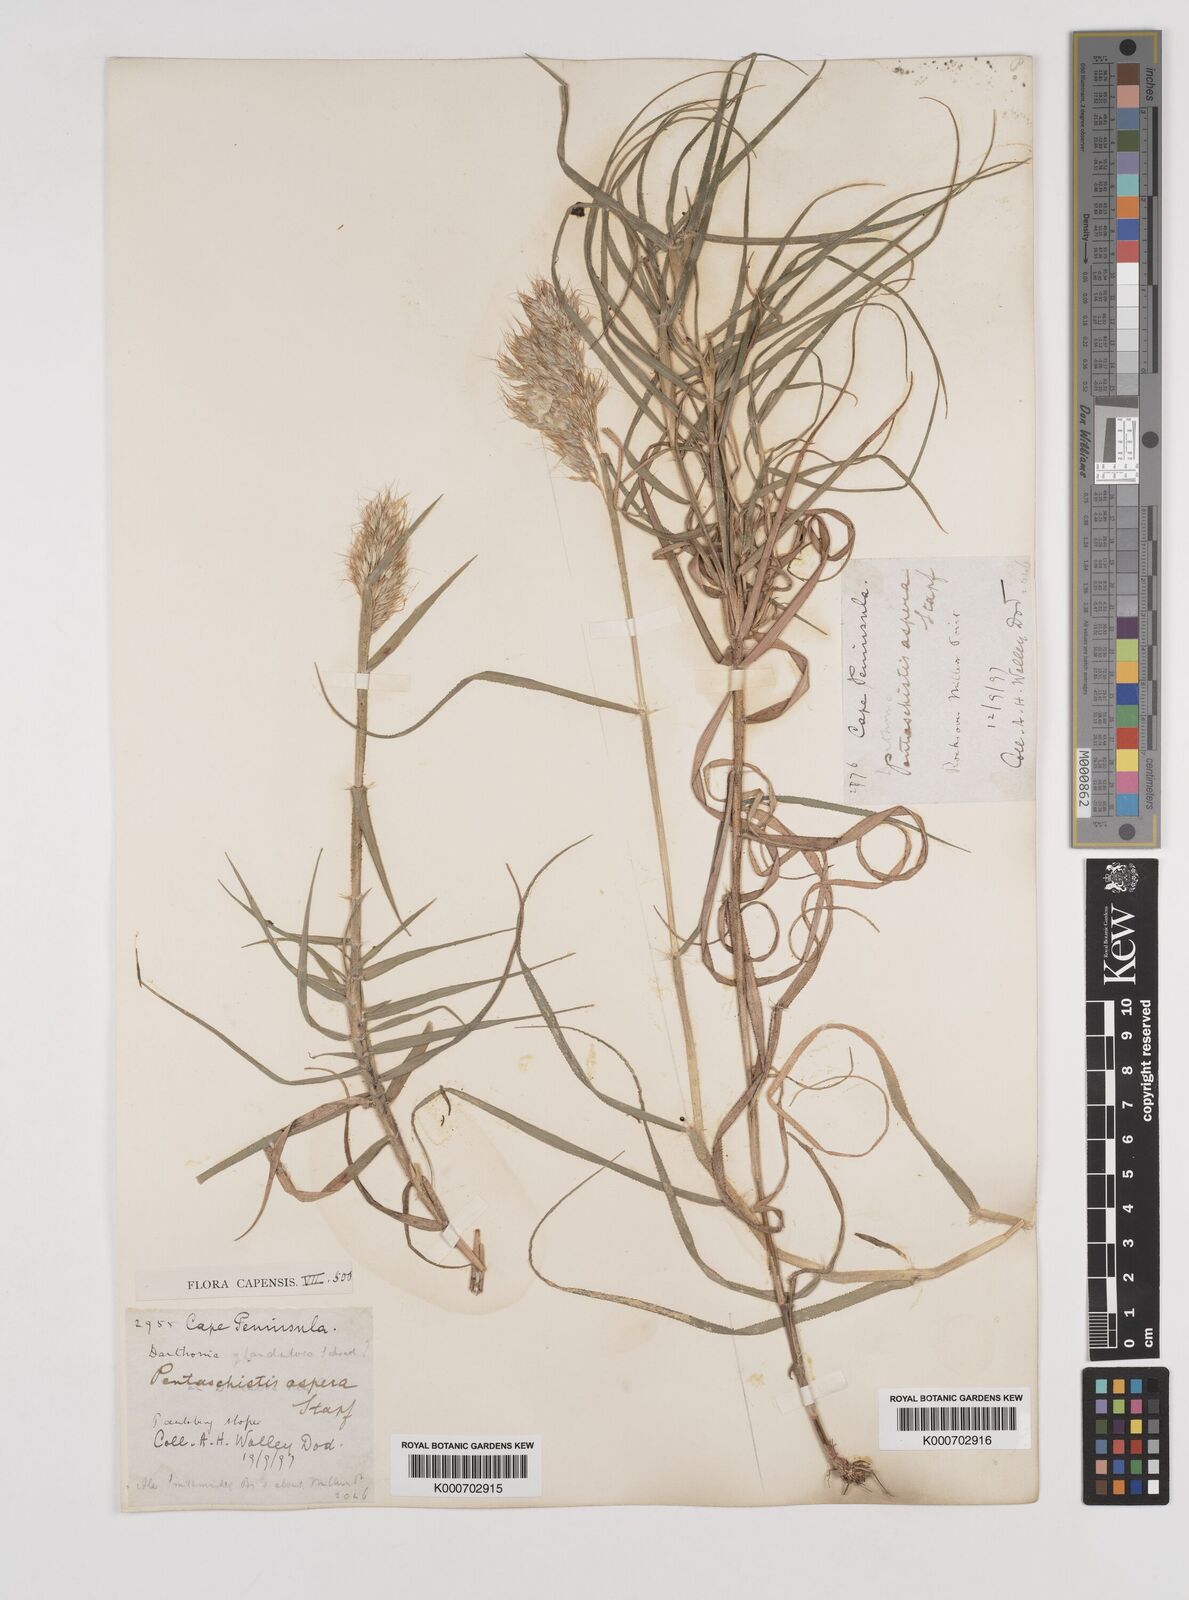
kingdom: Plantae
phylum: Tracheophyta
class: Liliopsida
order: Poales
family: Poaceae
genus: Pentameris
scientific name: Pentameris aspera
